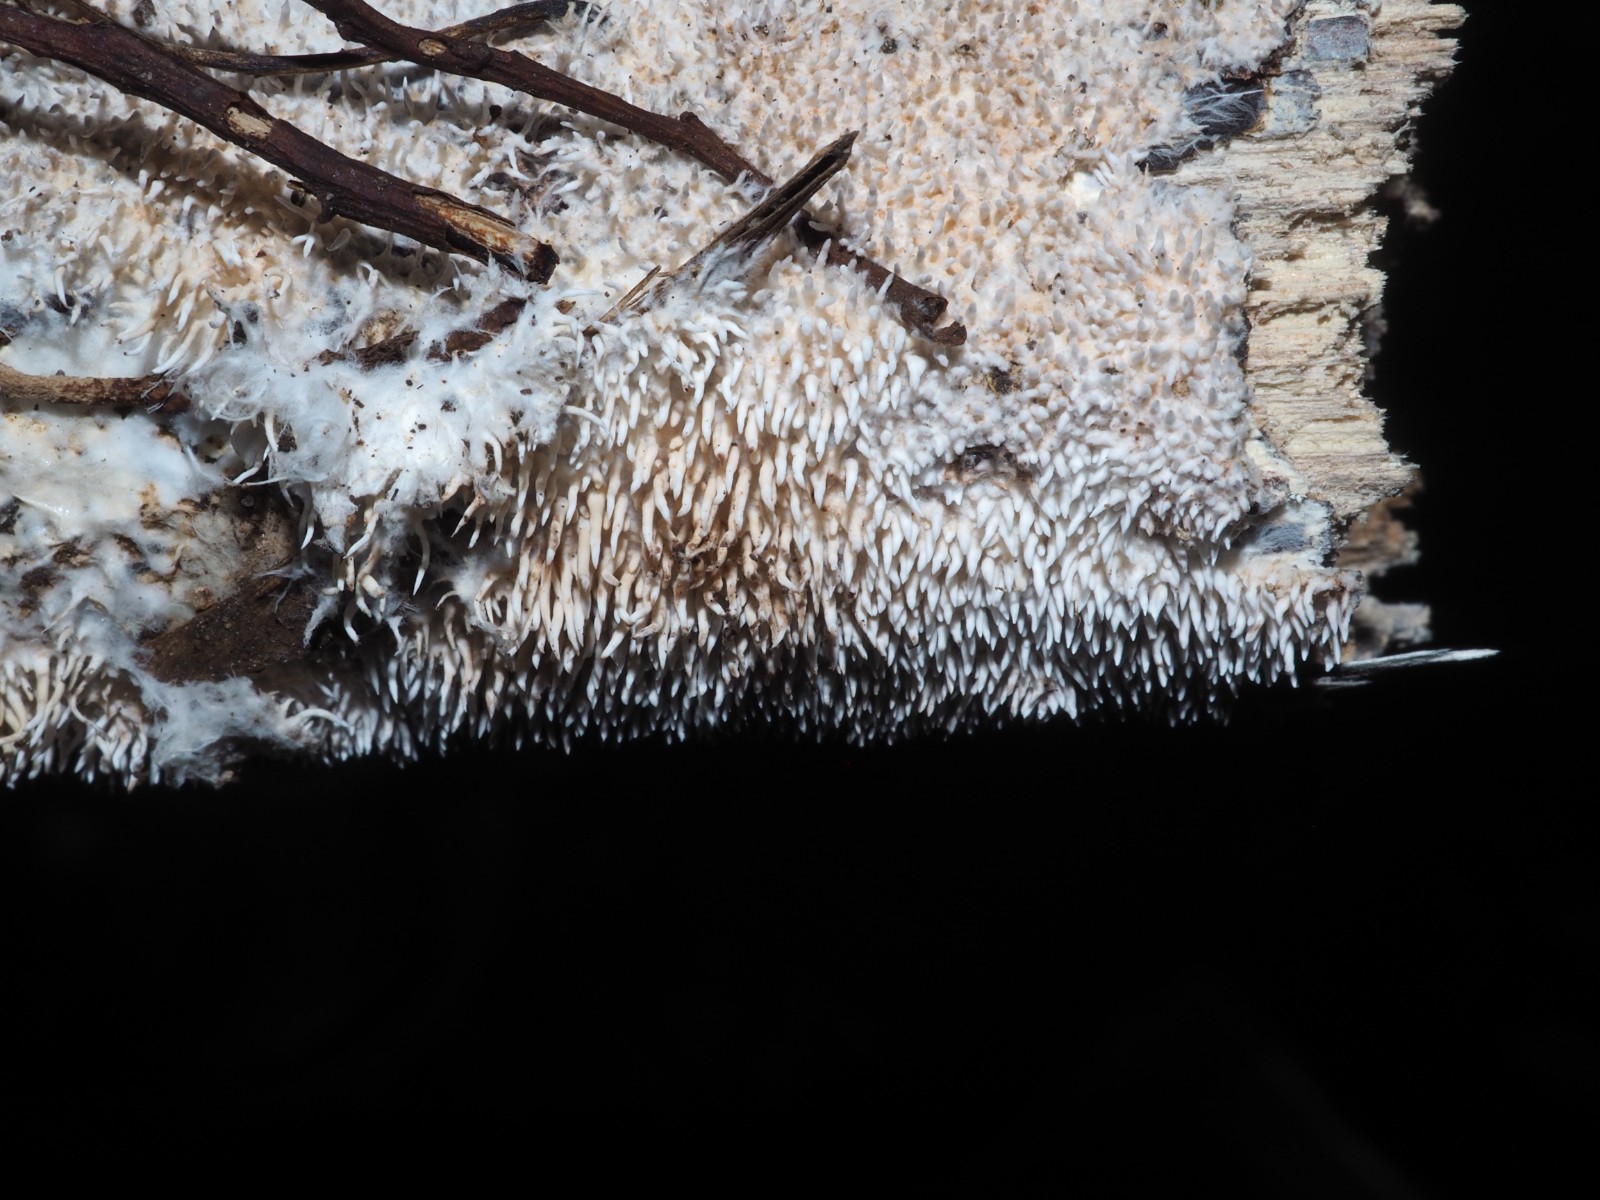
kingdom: Fungi
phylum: Basidiomycota
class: Agaricomycetes
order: Gomphales
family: Lentariaceae
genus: Hydnocristella
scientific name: Hydnocristella himantia
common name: brunlig koralpig
